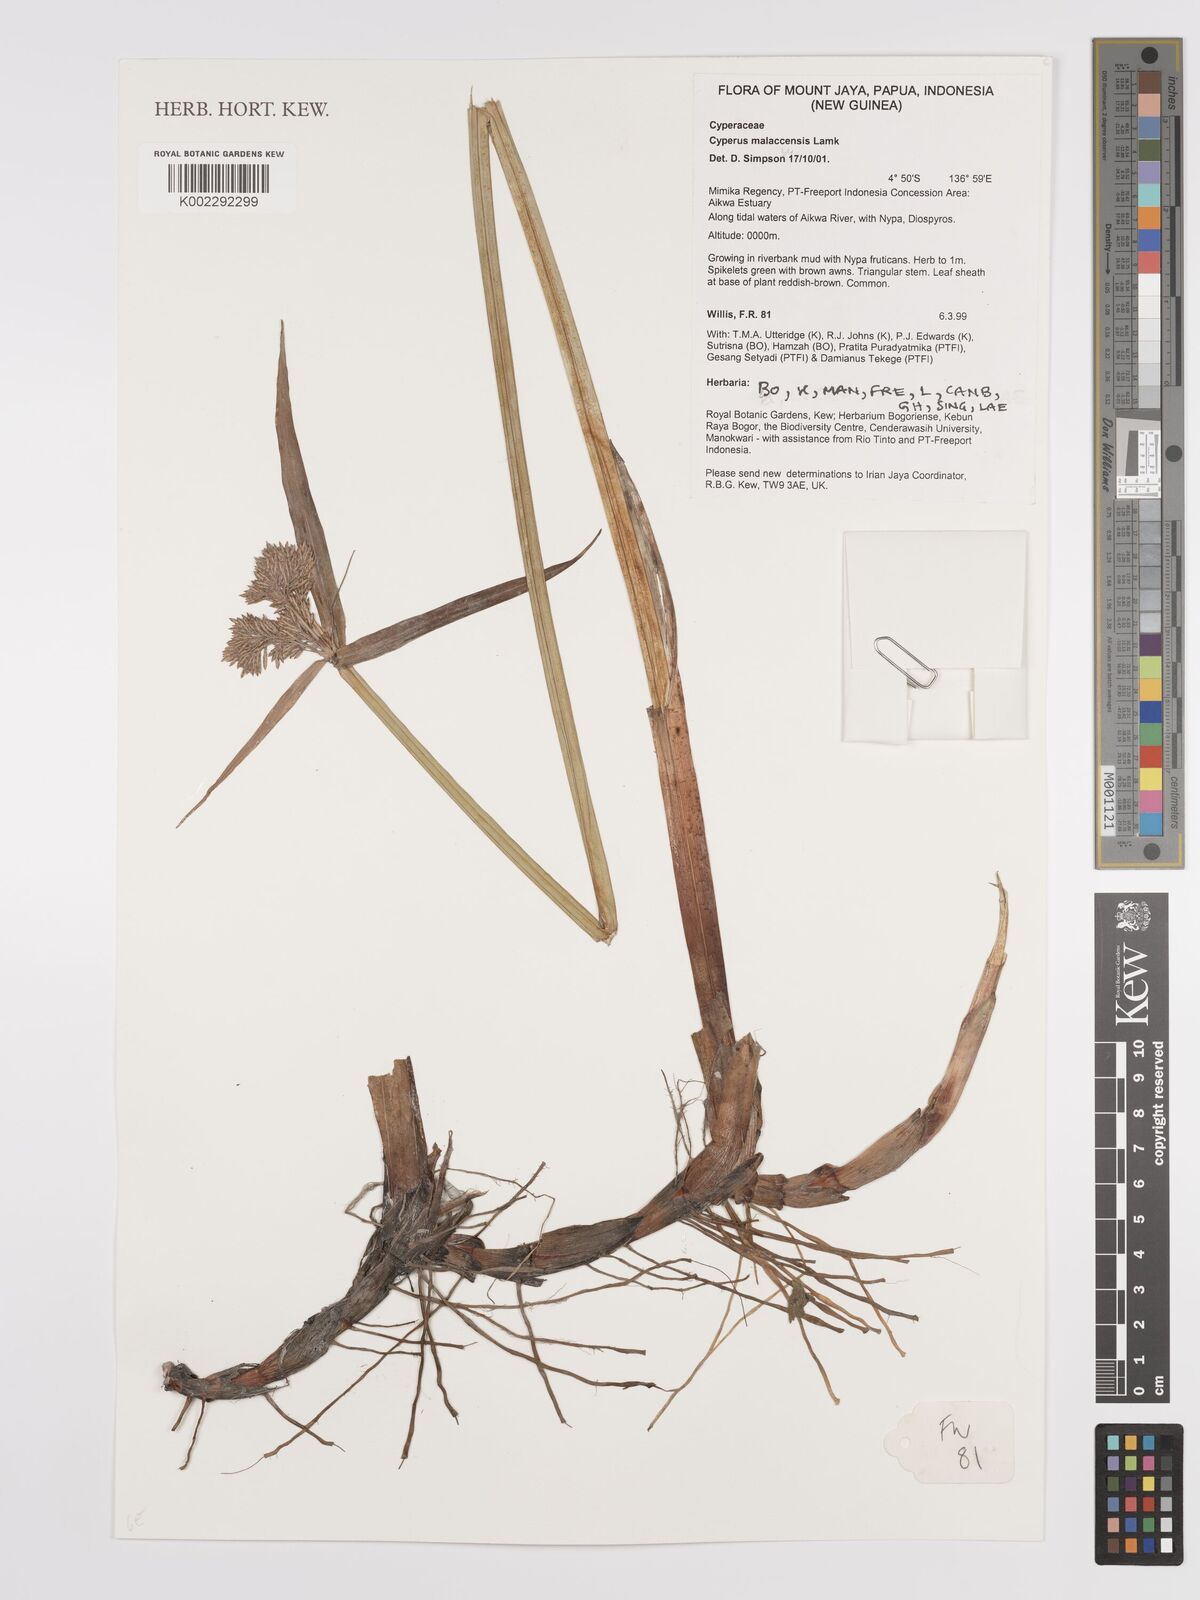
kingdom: Plantae
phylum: Tracheophyta
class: Liliopsida
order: Poales
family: Cyperaceae
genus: Cyperus
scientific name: Cyperus malaccensis
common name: Shichito matgrass
